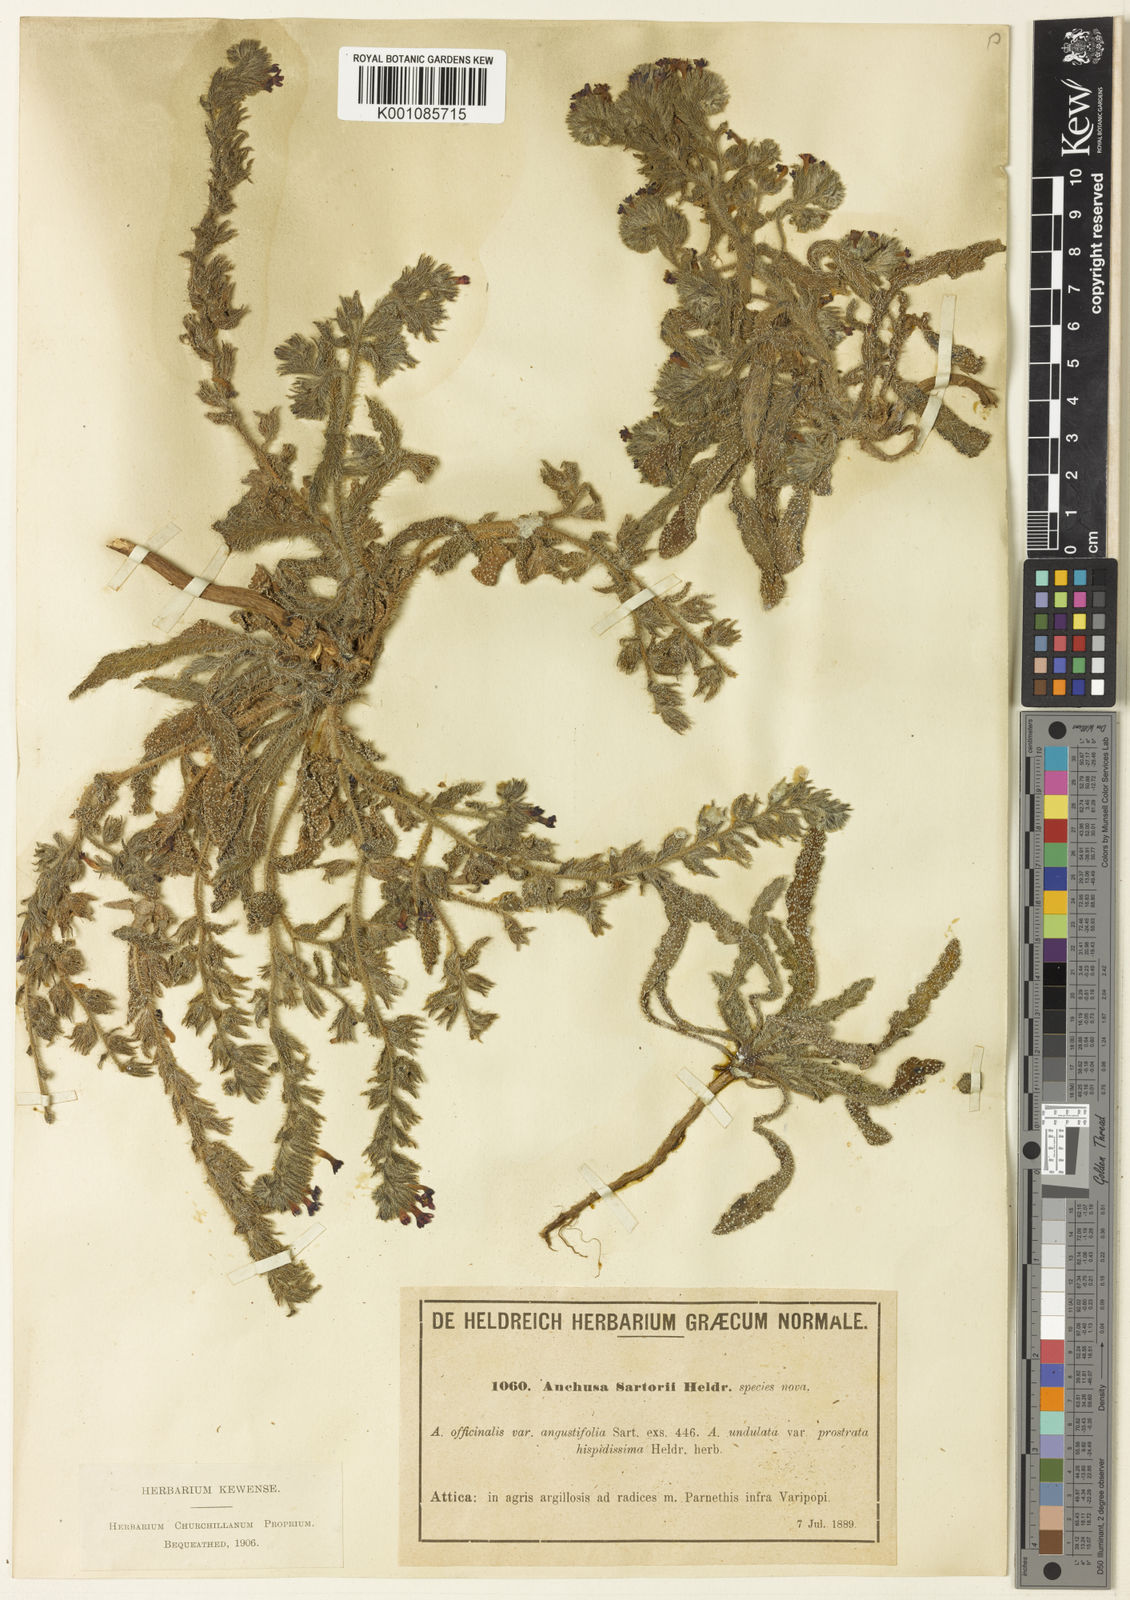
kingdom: Plantae
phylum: Tracheophyta
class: Magnoliopsida
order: Boraginales
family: Boraginaceae
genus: Anchusa
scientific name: Anchusa
